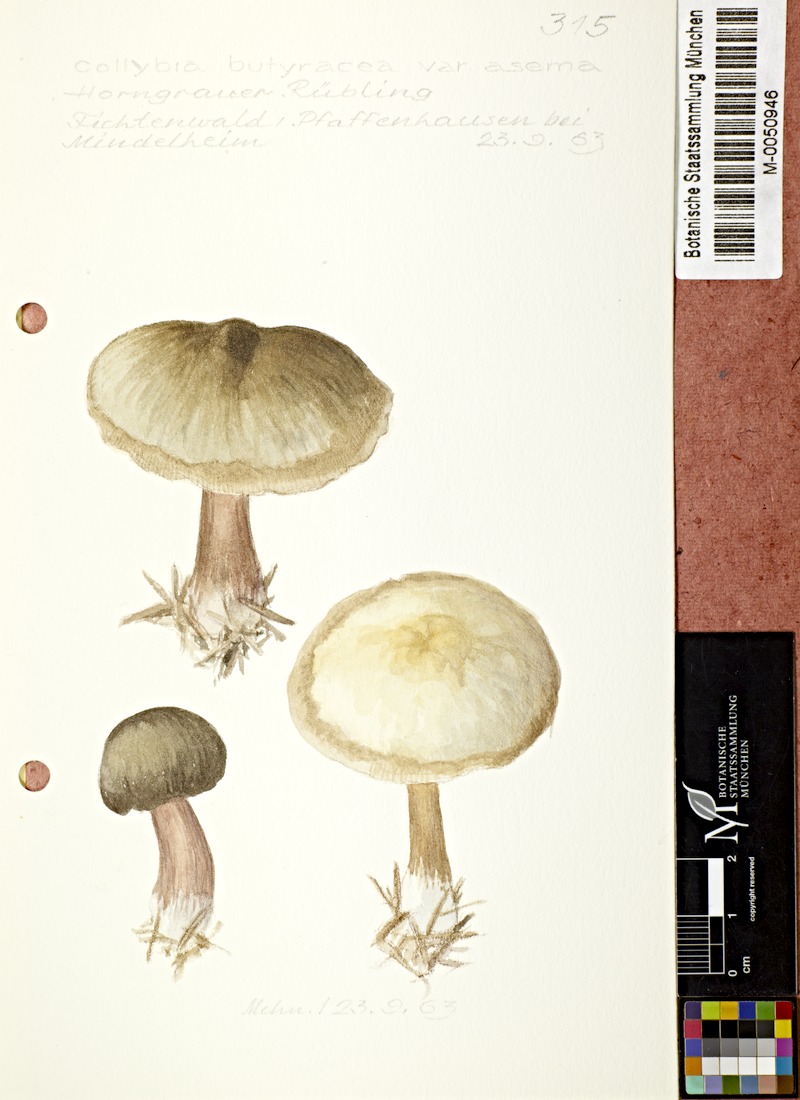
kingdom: Fungi
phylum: Basidiomycota
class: Agaricomycetes
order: Agaricales
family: Omphalotaceae
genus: Rhodocollybia
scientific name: Rhodocollybia asema
